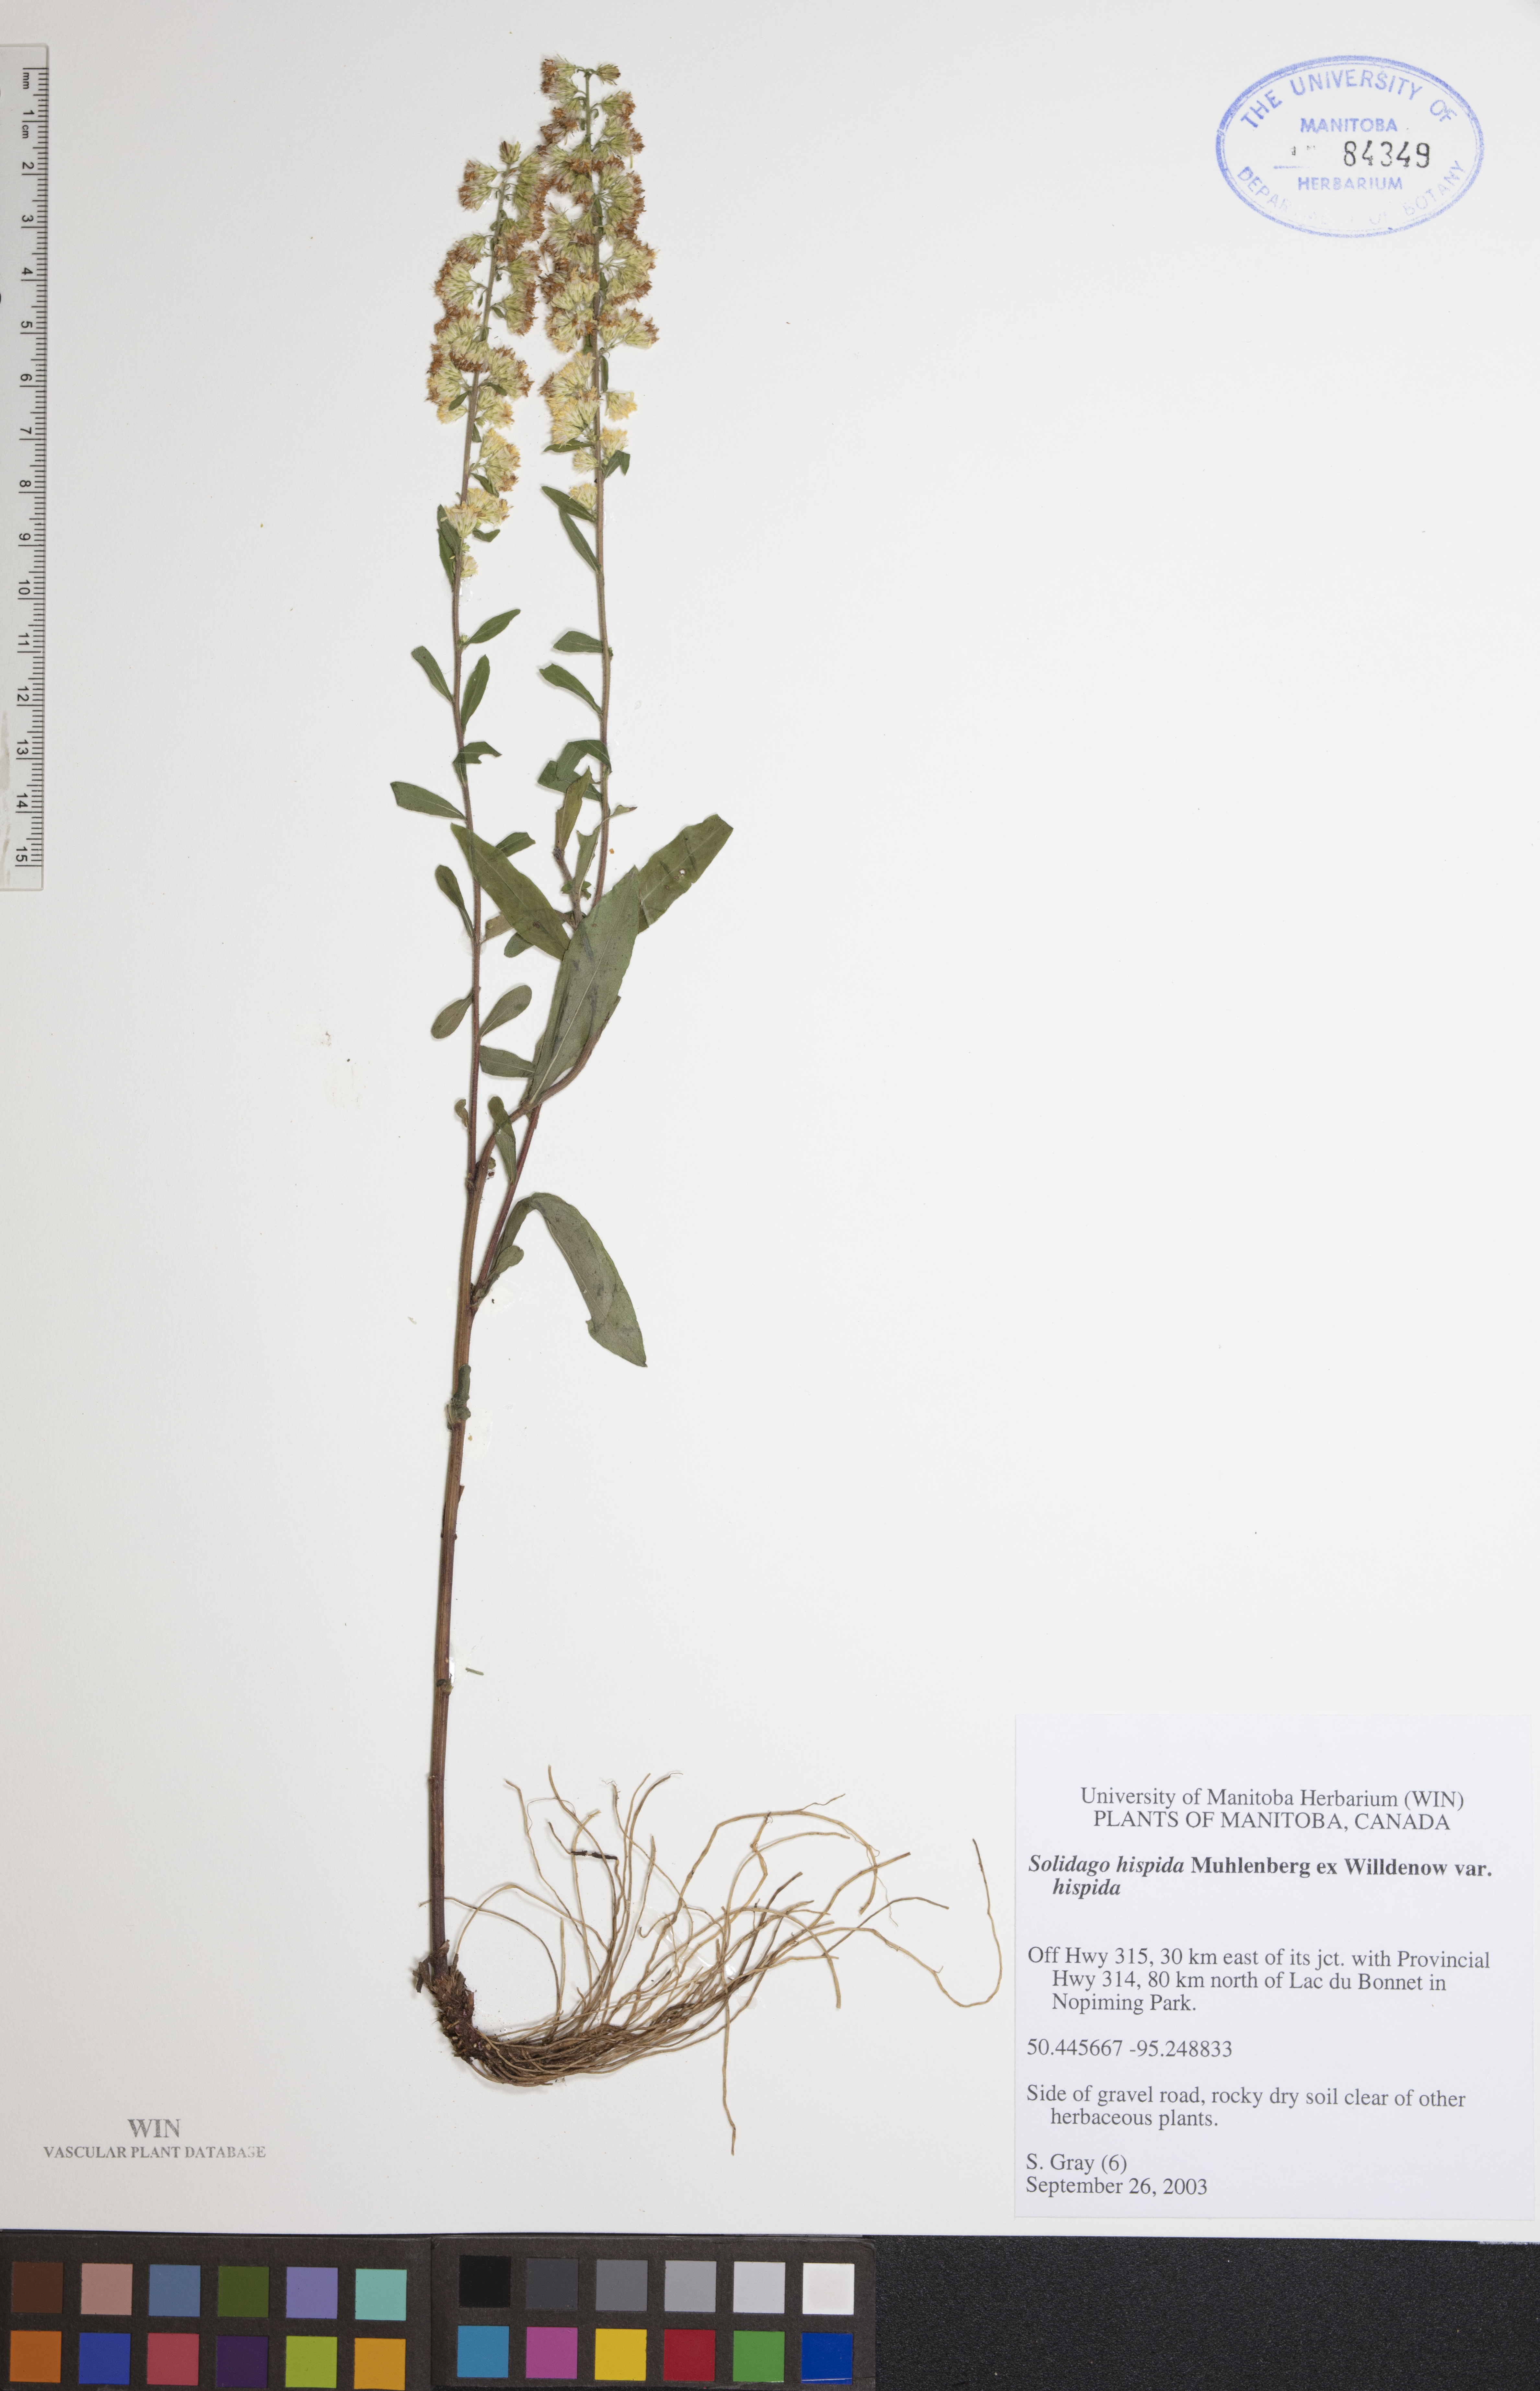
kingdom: Plantae
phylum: Tracheophyta
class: Magnoliopsida
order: Asterales
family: Asteraceae
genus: Solidago
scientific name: Solidago hispida
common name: Hairy goldenrod
